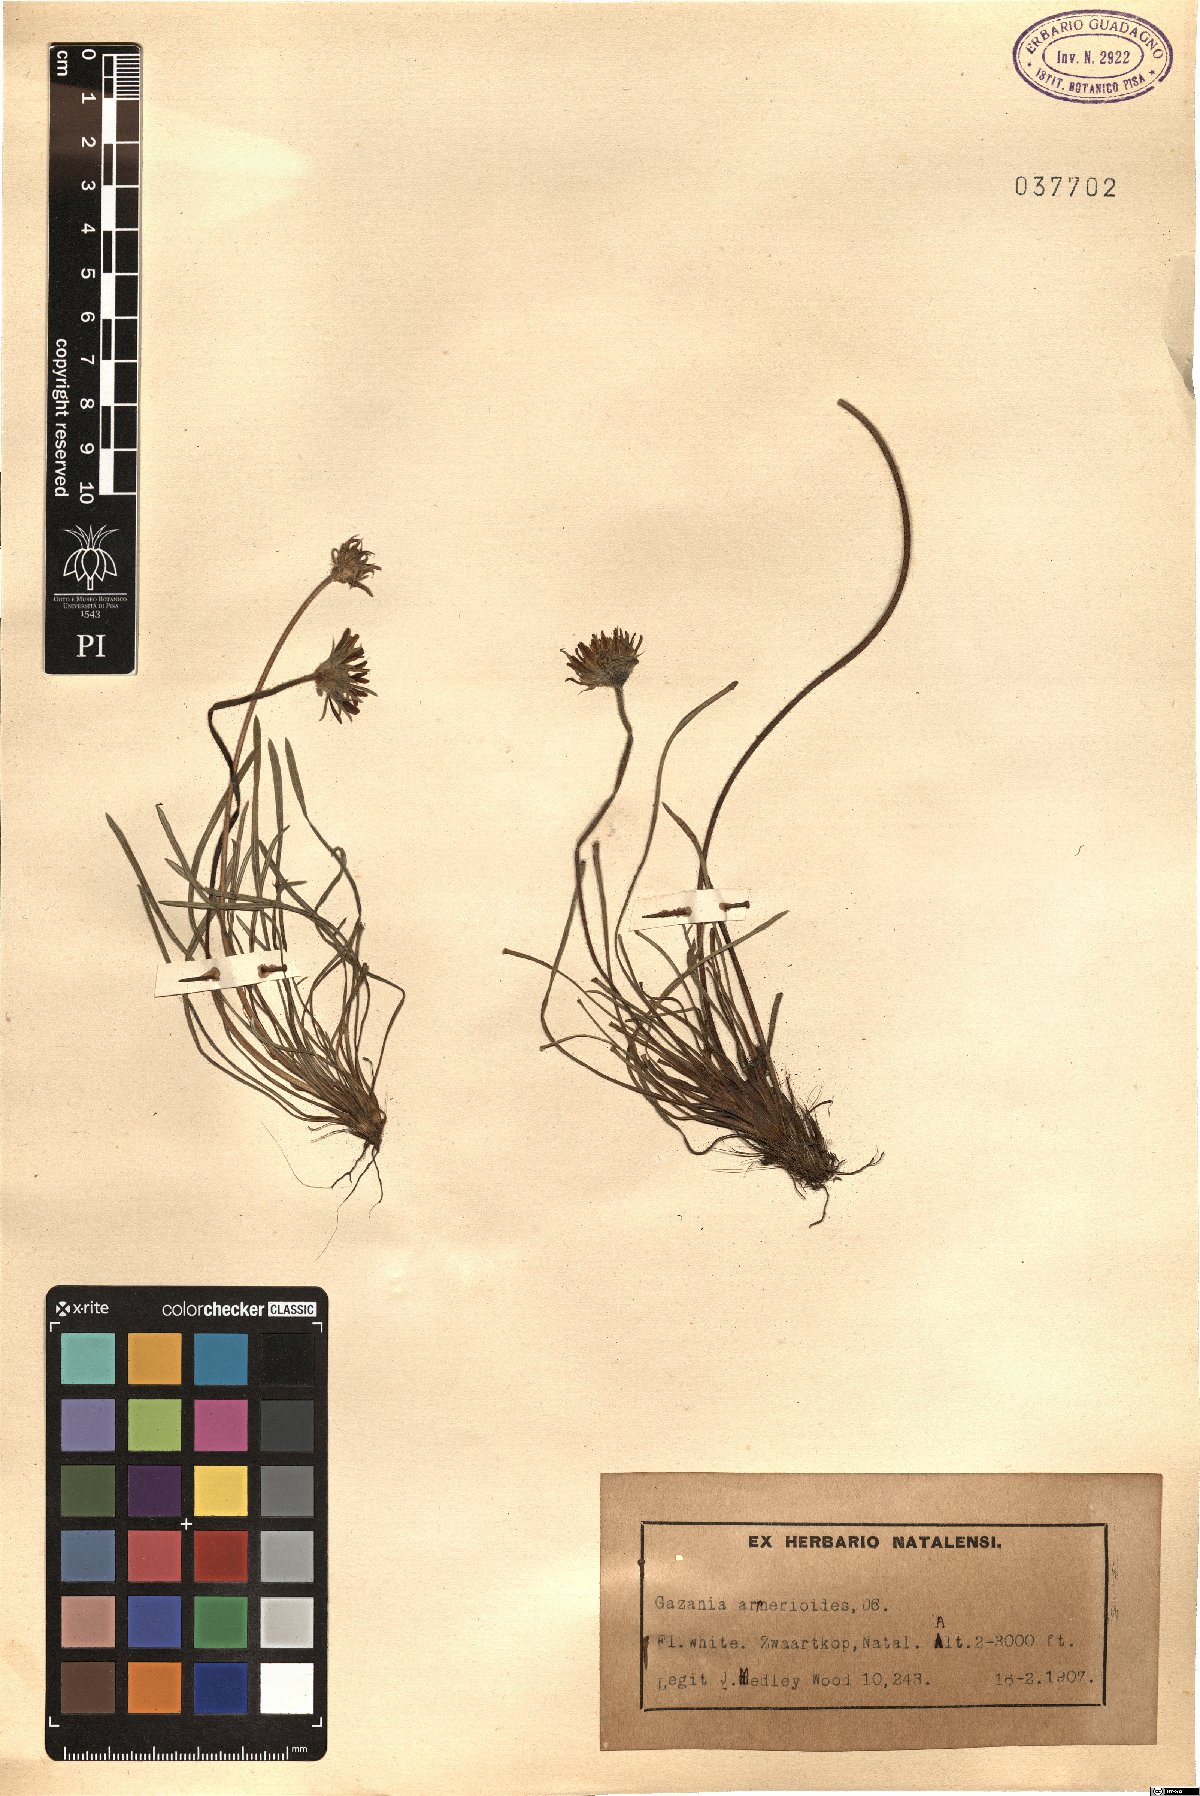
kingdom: Plantae
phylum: Tracheophyta
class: Magnoliopsida
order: Asterales
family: Asteraceae
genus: Roessleria
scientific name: Roessleria armerioides
